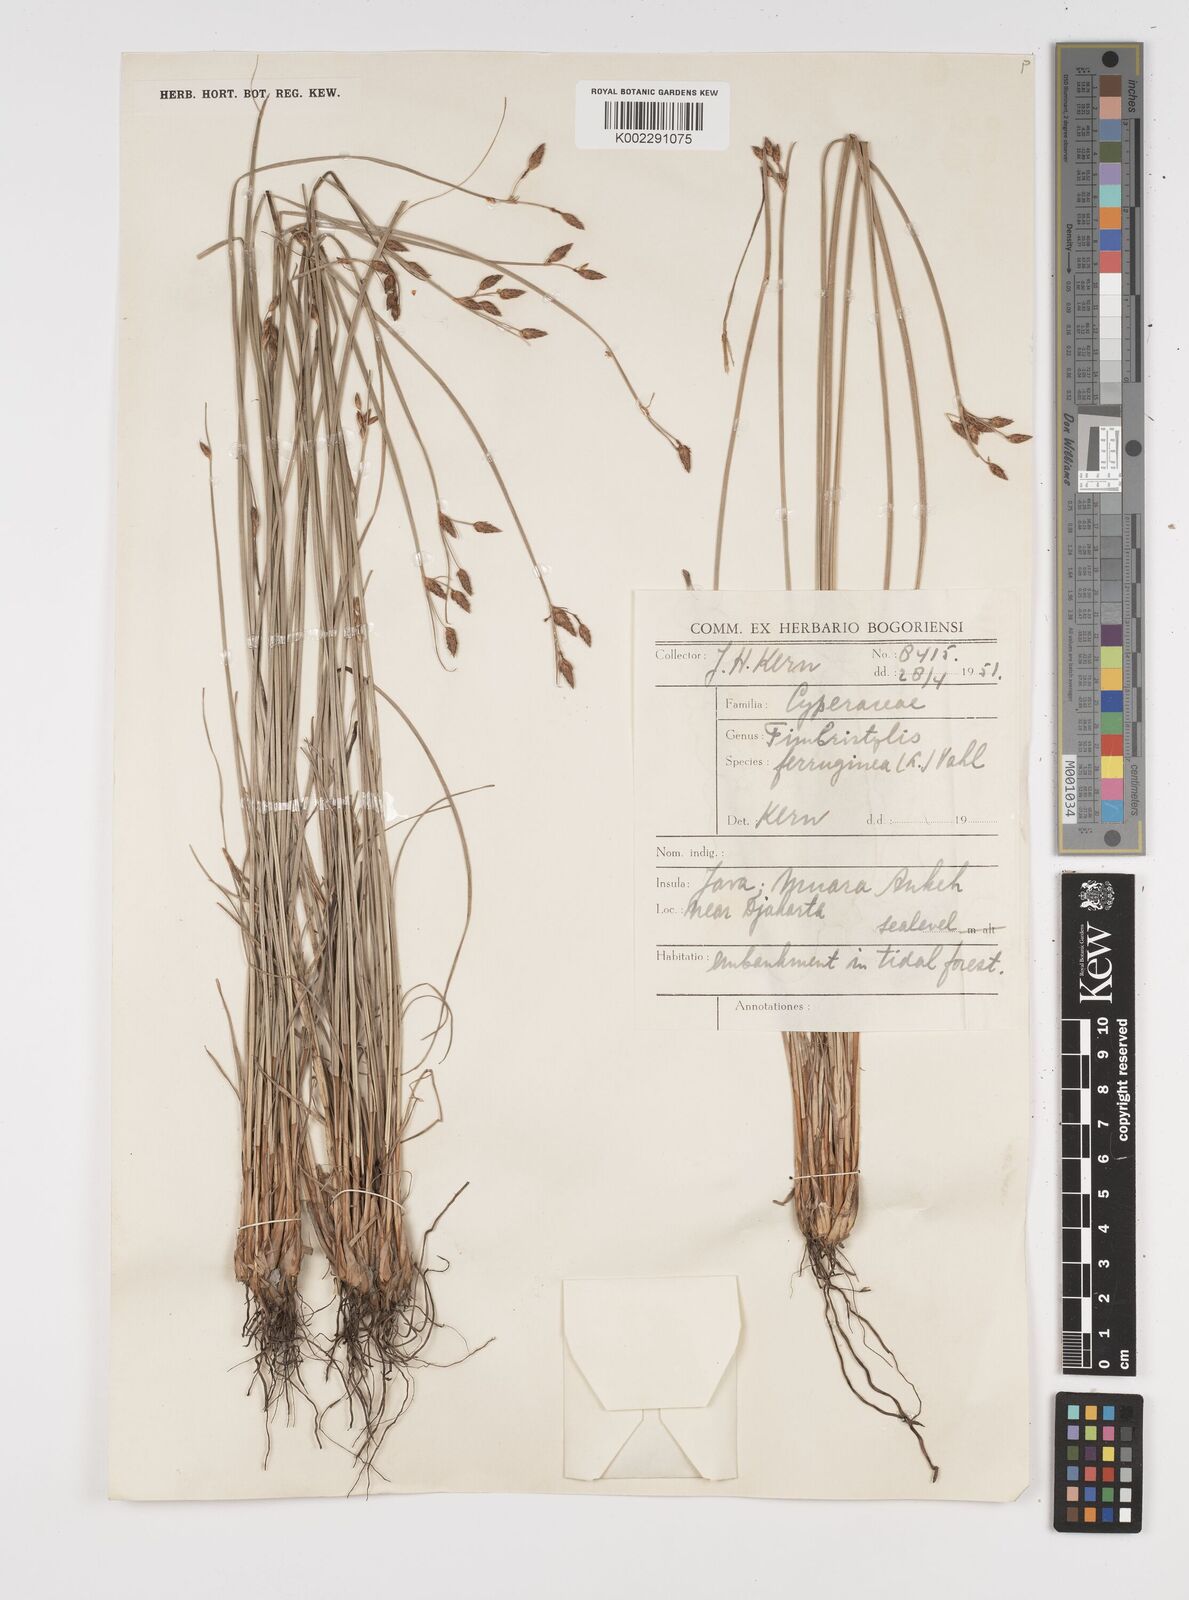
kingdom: Plantae
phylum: Tracheophyta
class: Liliopsida
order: Poales
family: Cyperaceae
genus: Fimbristylis
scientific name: Fimbristylis ferruginea
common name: West indian fimbry
